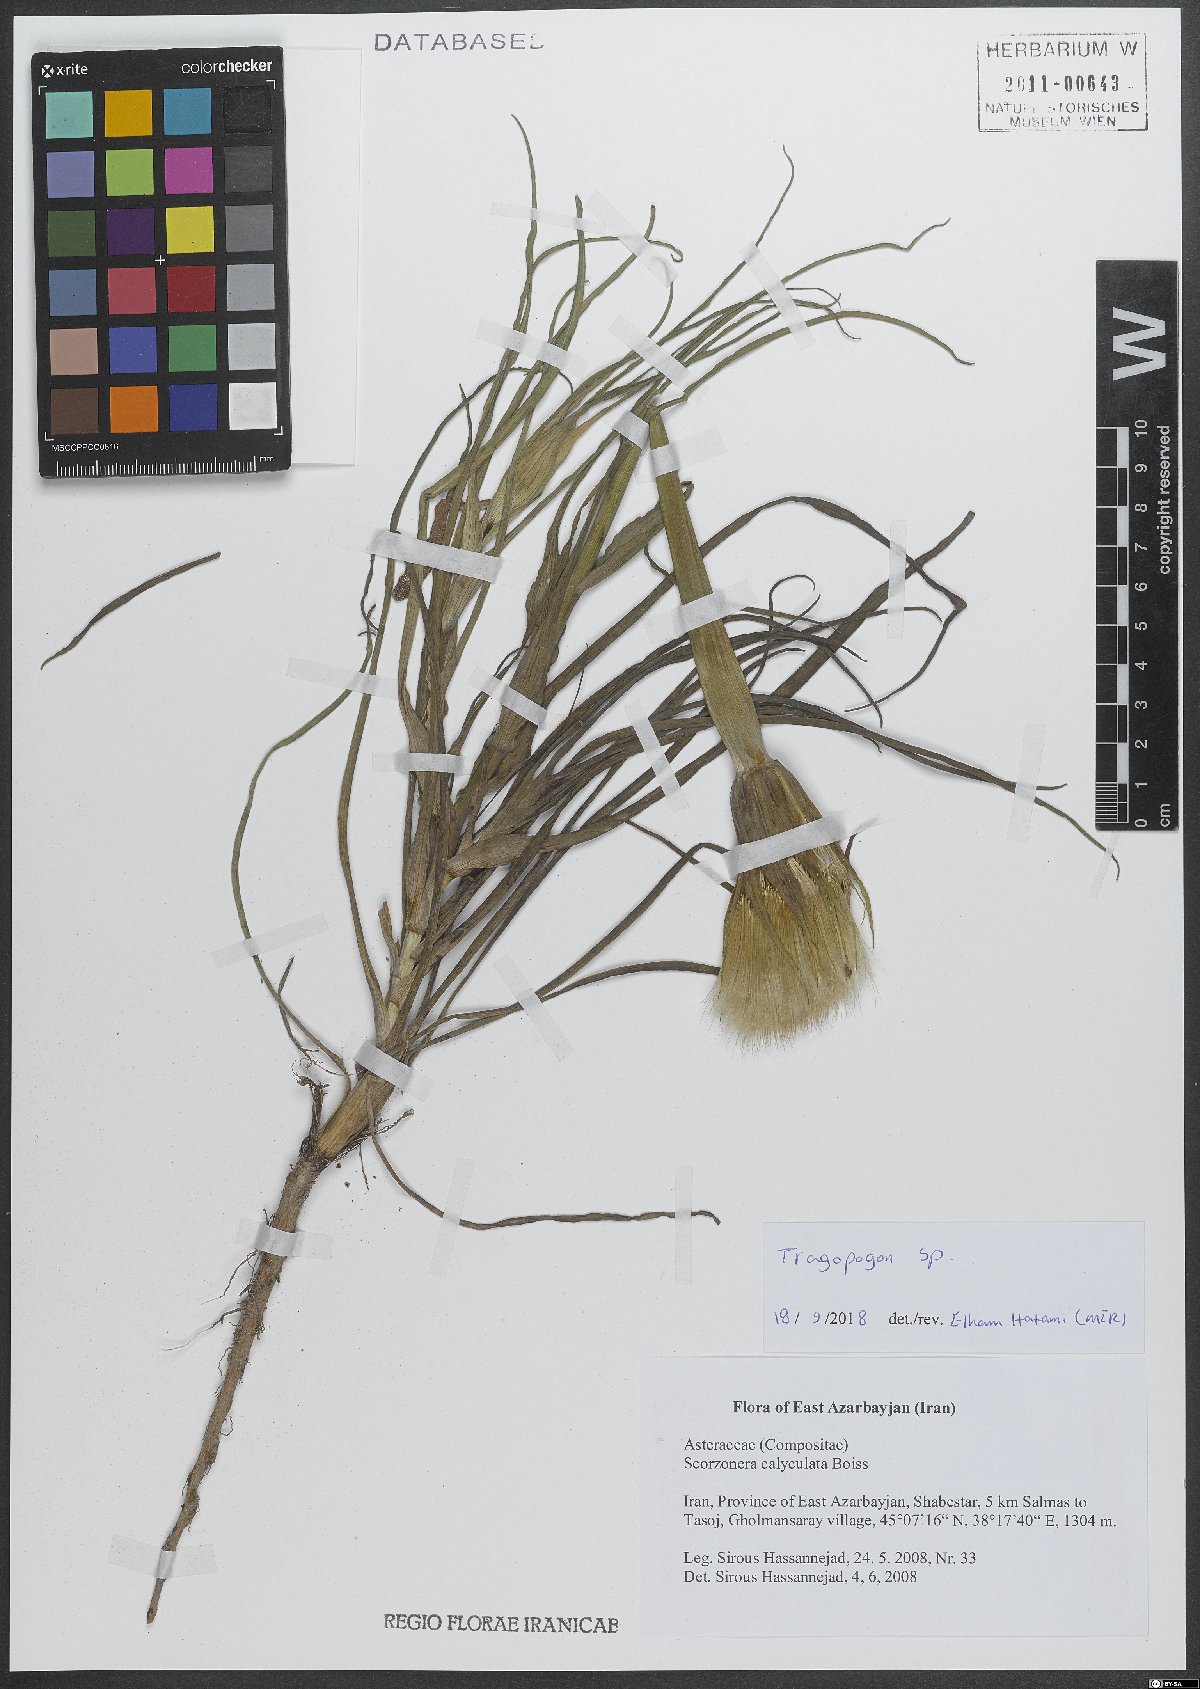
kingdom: Plantae
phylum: Tracheophyta
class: Magnoliopsida
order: Asterales
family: Asteraceae
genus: Tragopogon
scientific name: Tragopogon
